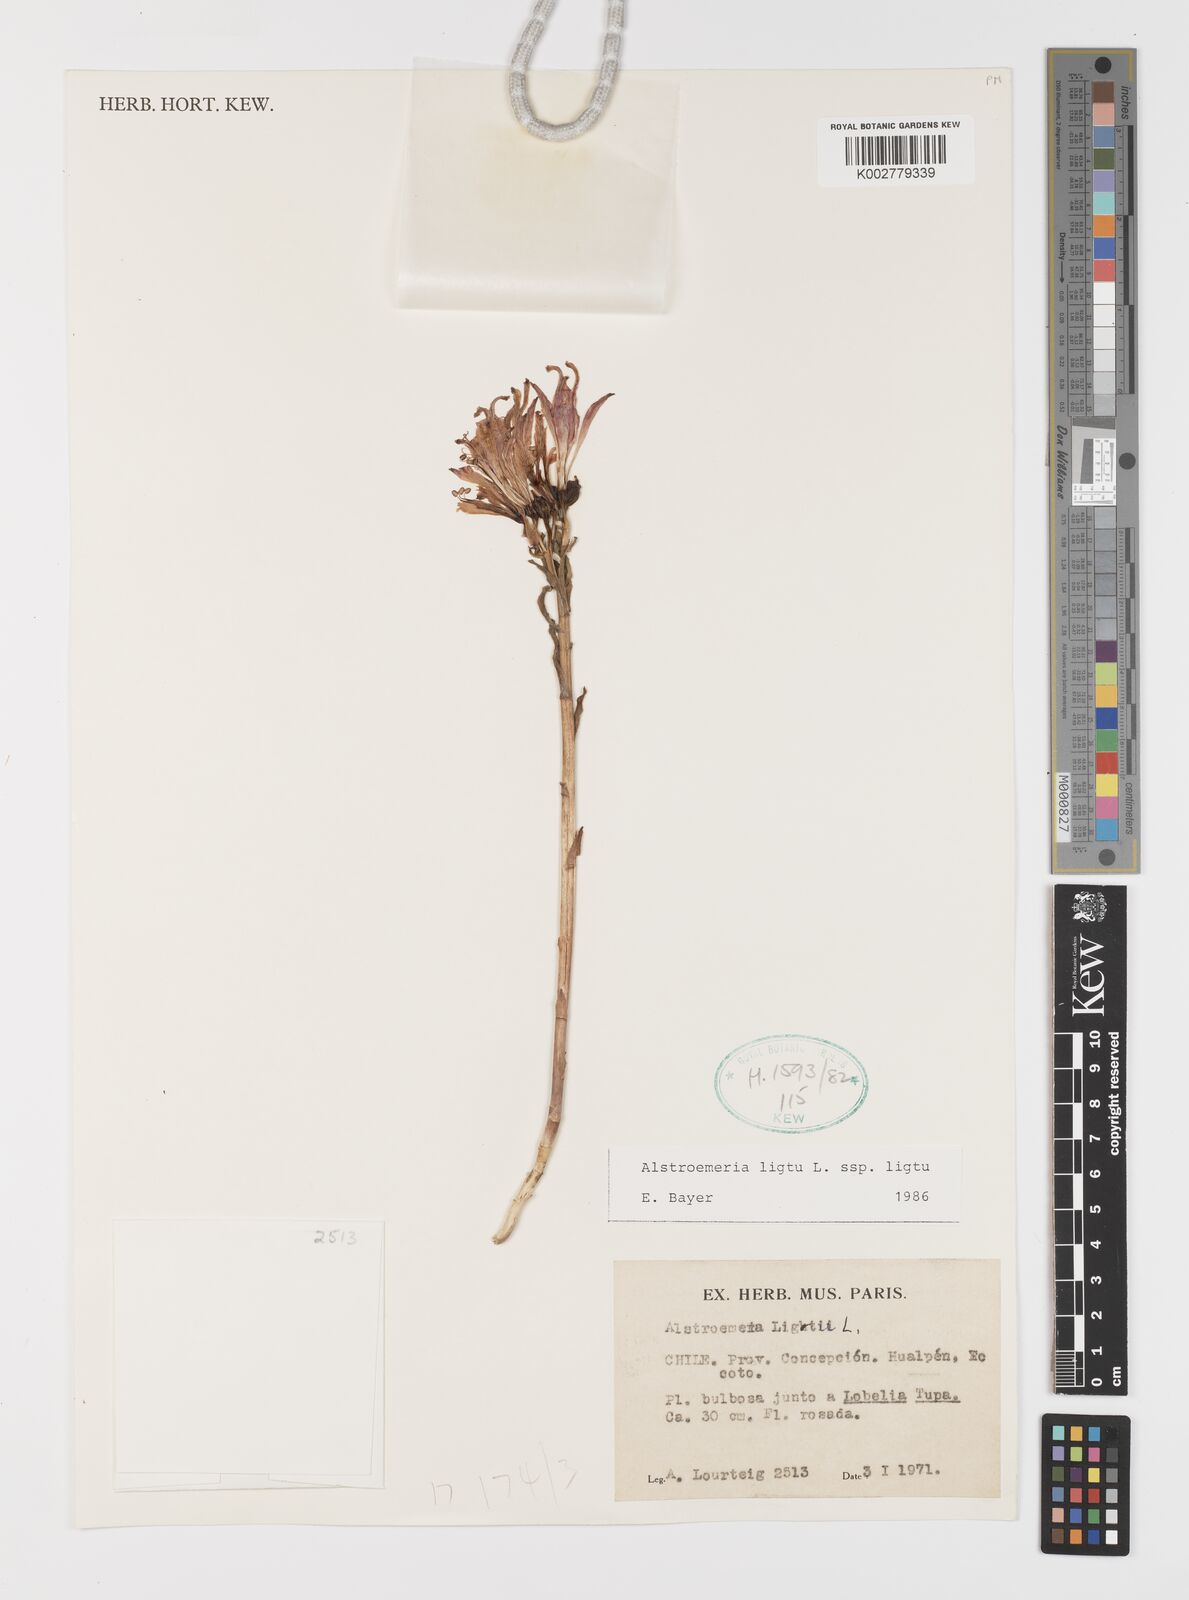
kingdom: Plantae
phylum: Tracheophyta
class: Liliopsida
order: Liliales
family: Alstroemeriaceae
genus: Alstroemeria
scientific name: Alstroemeria ligtu
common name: St. martin's-flower
